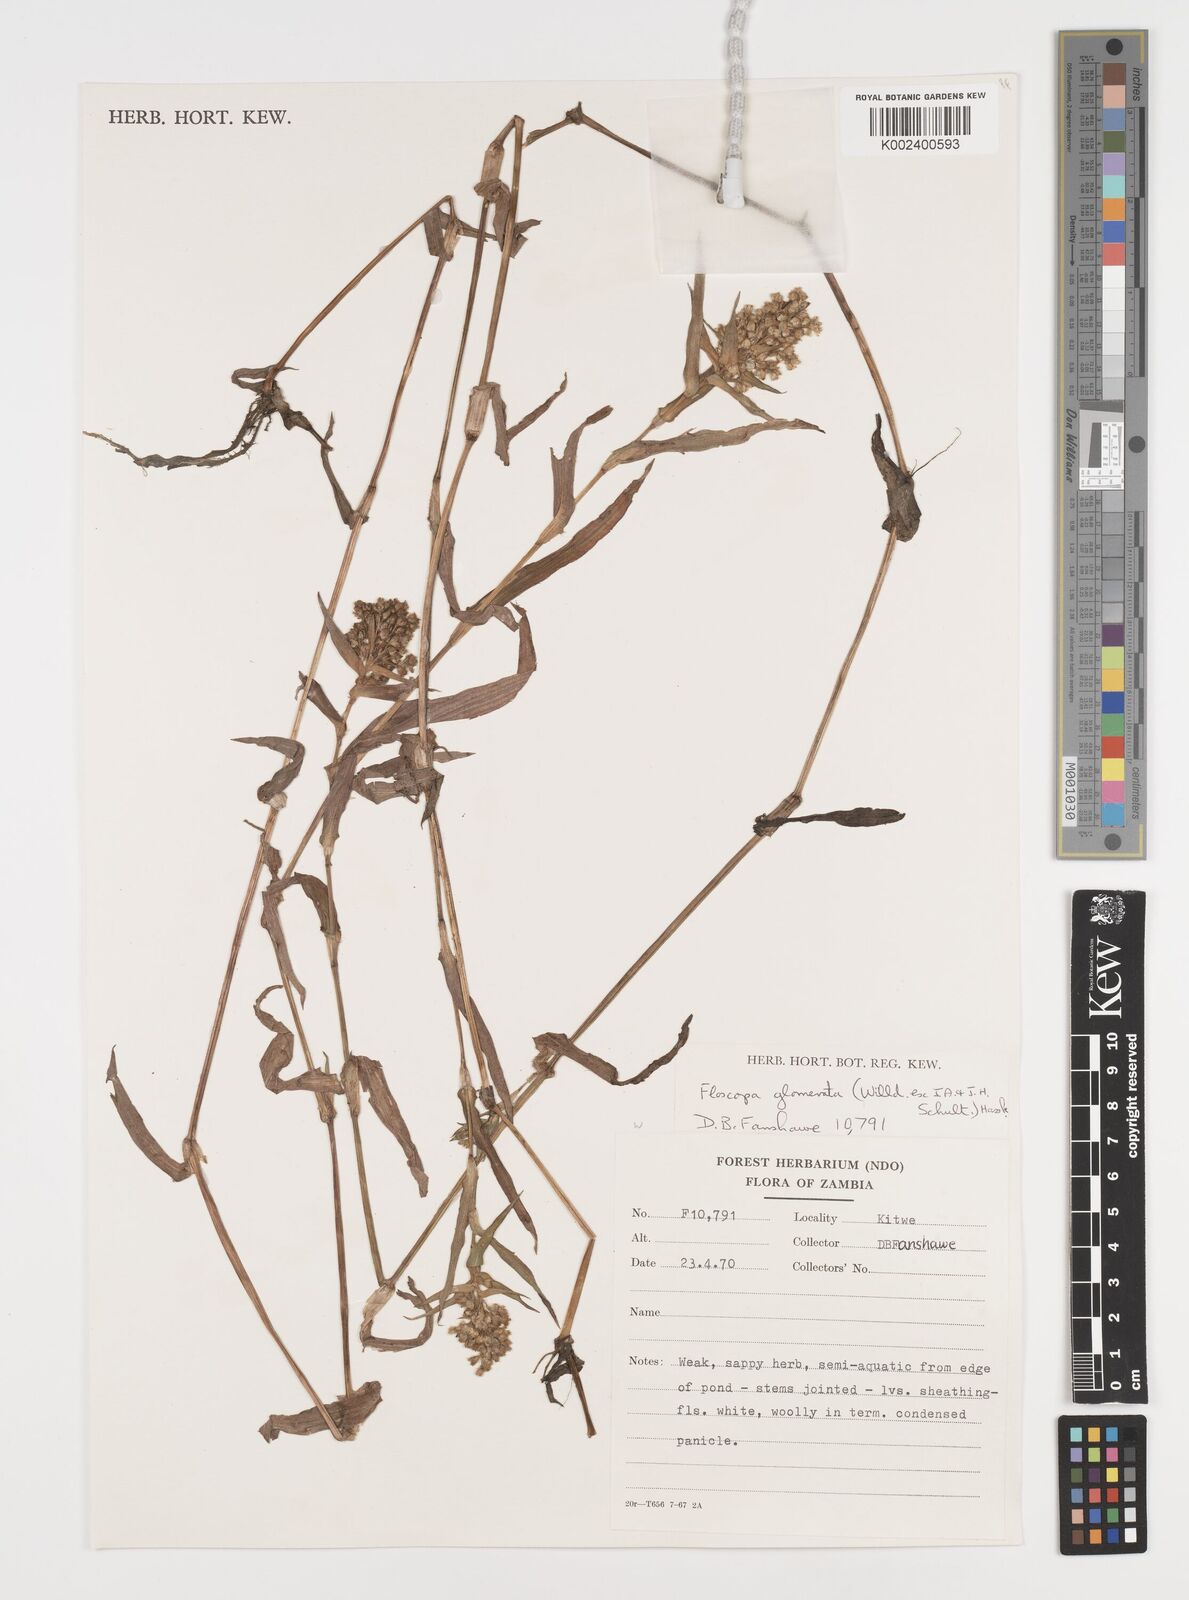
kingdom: Plantae
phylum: Tracheophyta
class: Liliopsida
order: Commelinales
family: Commelinaceae
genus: Floscopa
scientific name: Floscopa glomerata
